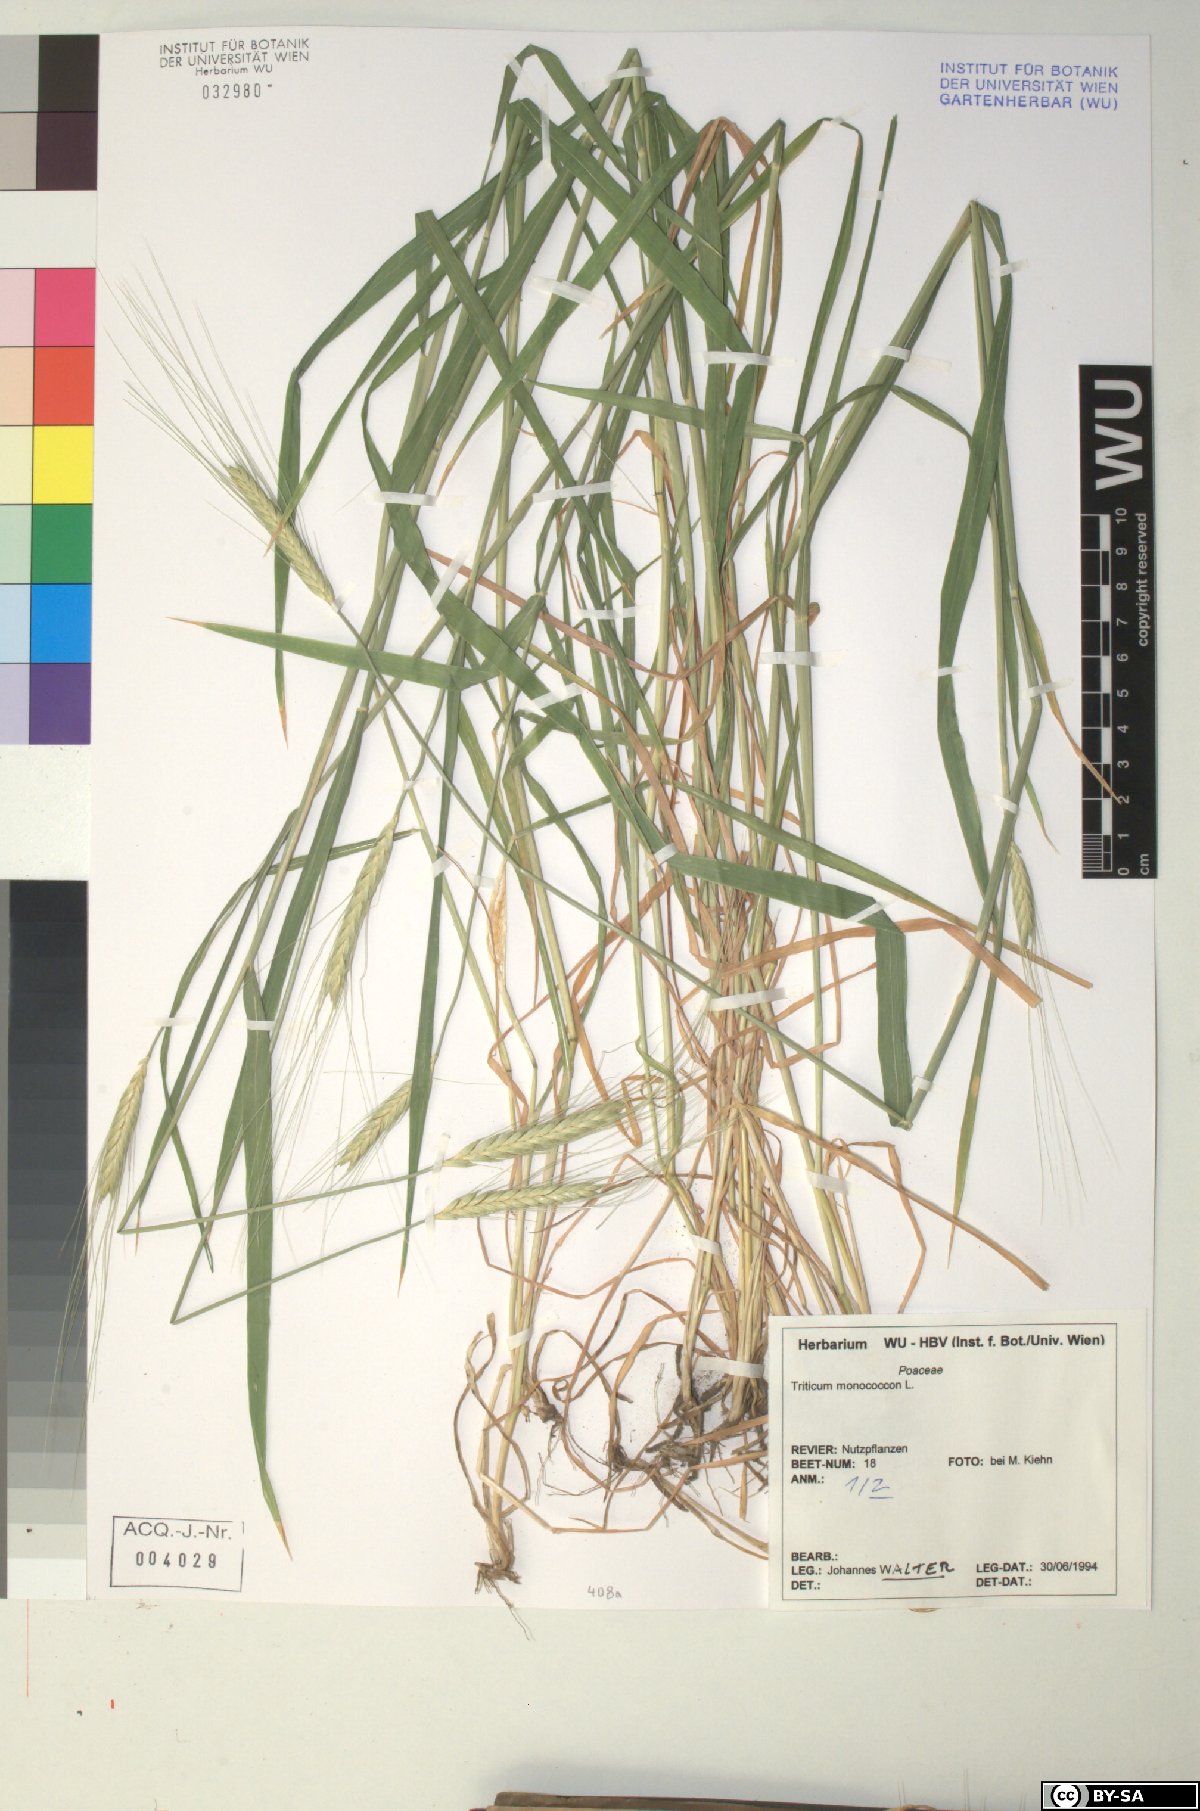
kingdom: Plantae
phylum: Tracheophyta
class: Liliopsida
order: Poales
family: Poaceae
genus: Triticum
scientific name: Triticum monococcum
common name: Einkorn
